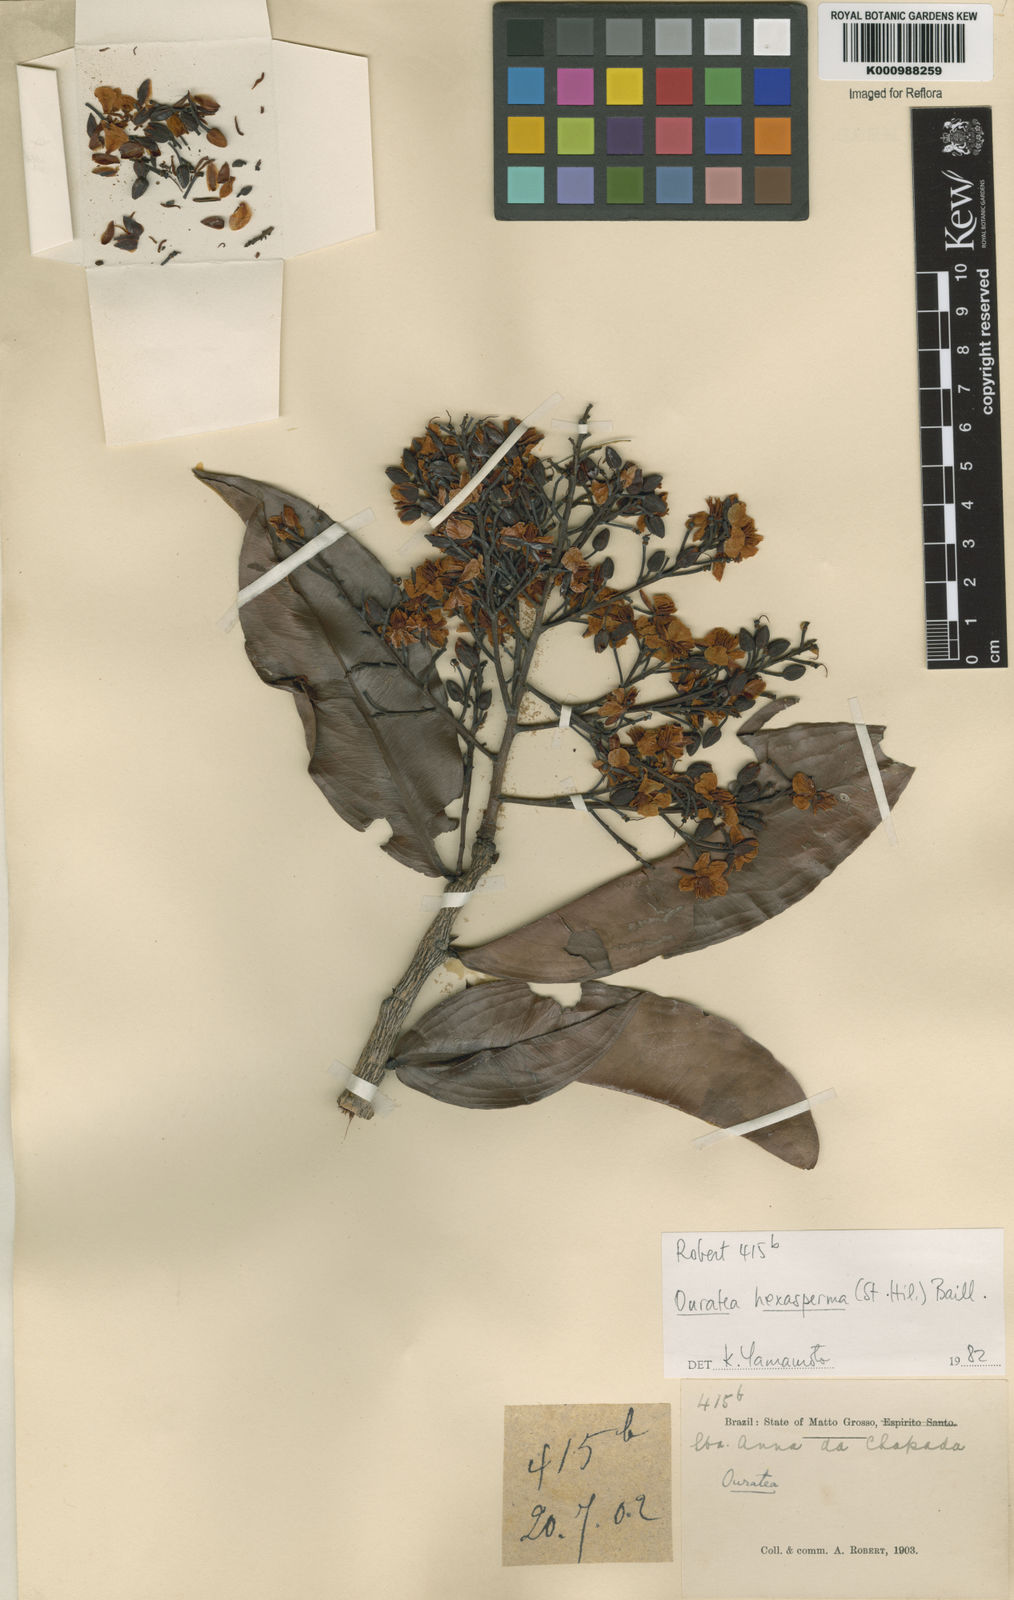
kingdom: Plantae
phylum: Tracheophyta
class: Magnoliopsida
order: Malpighiales
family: Ochnaceae
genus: Ouratea
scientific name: Ouratea hexasperma
